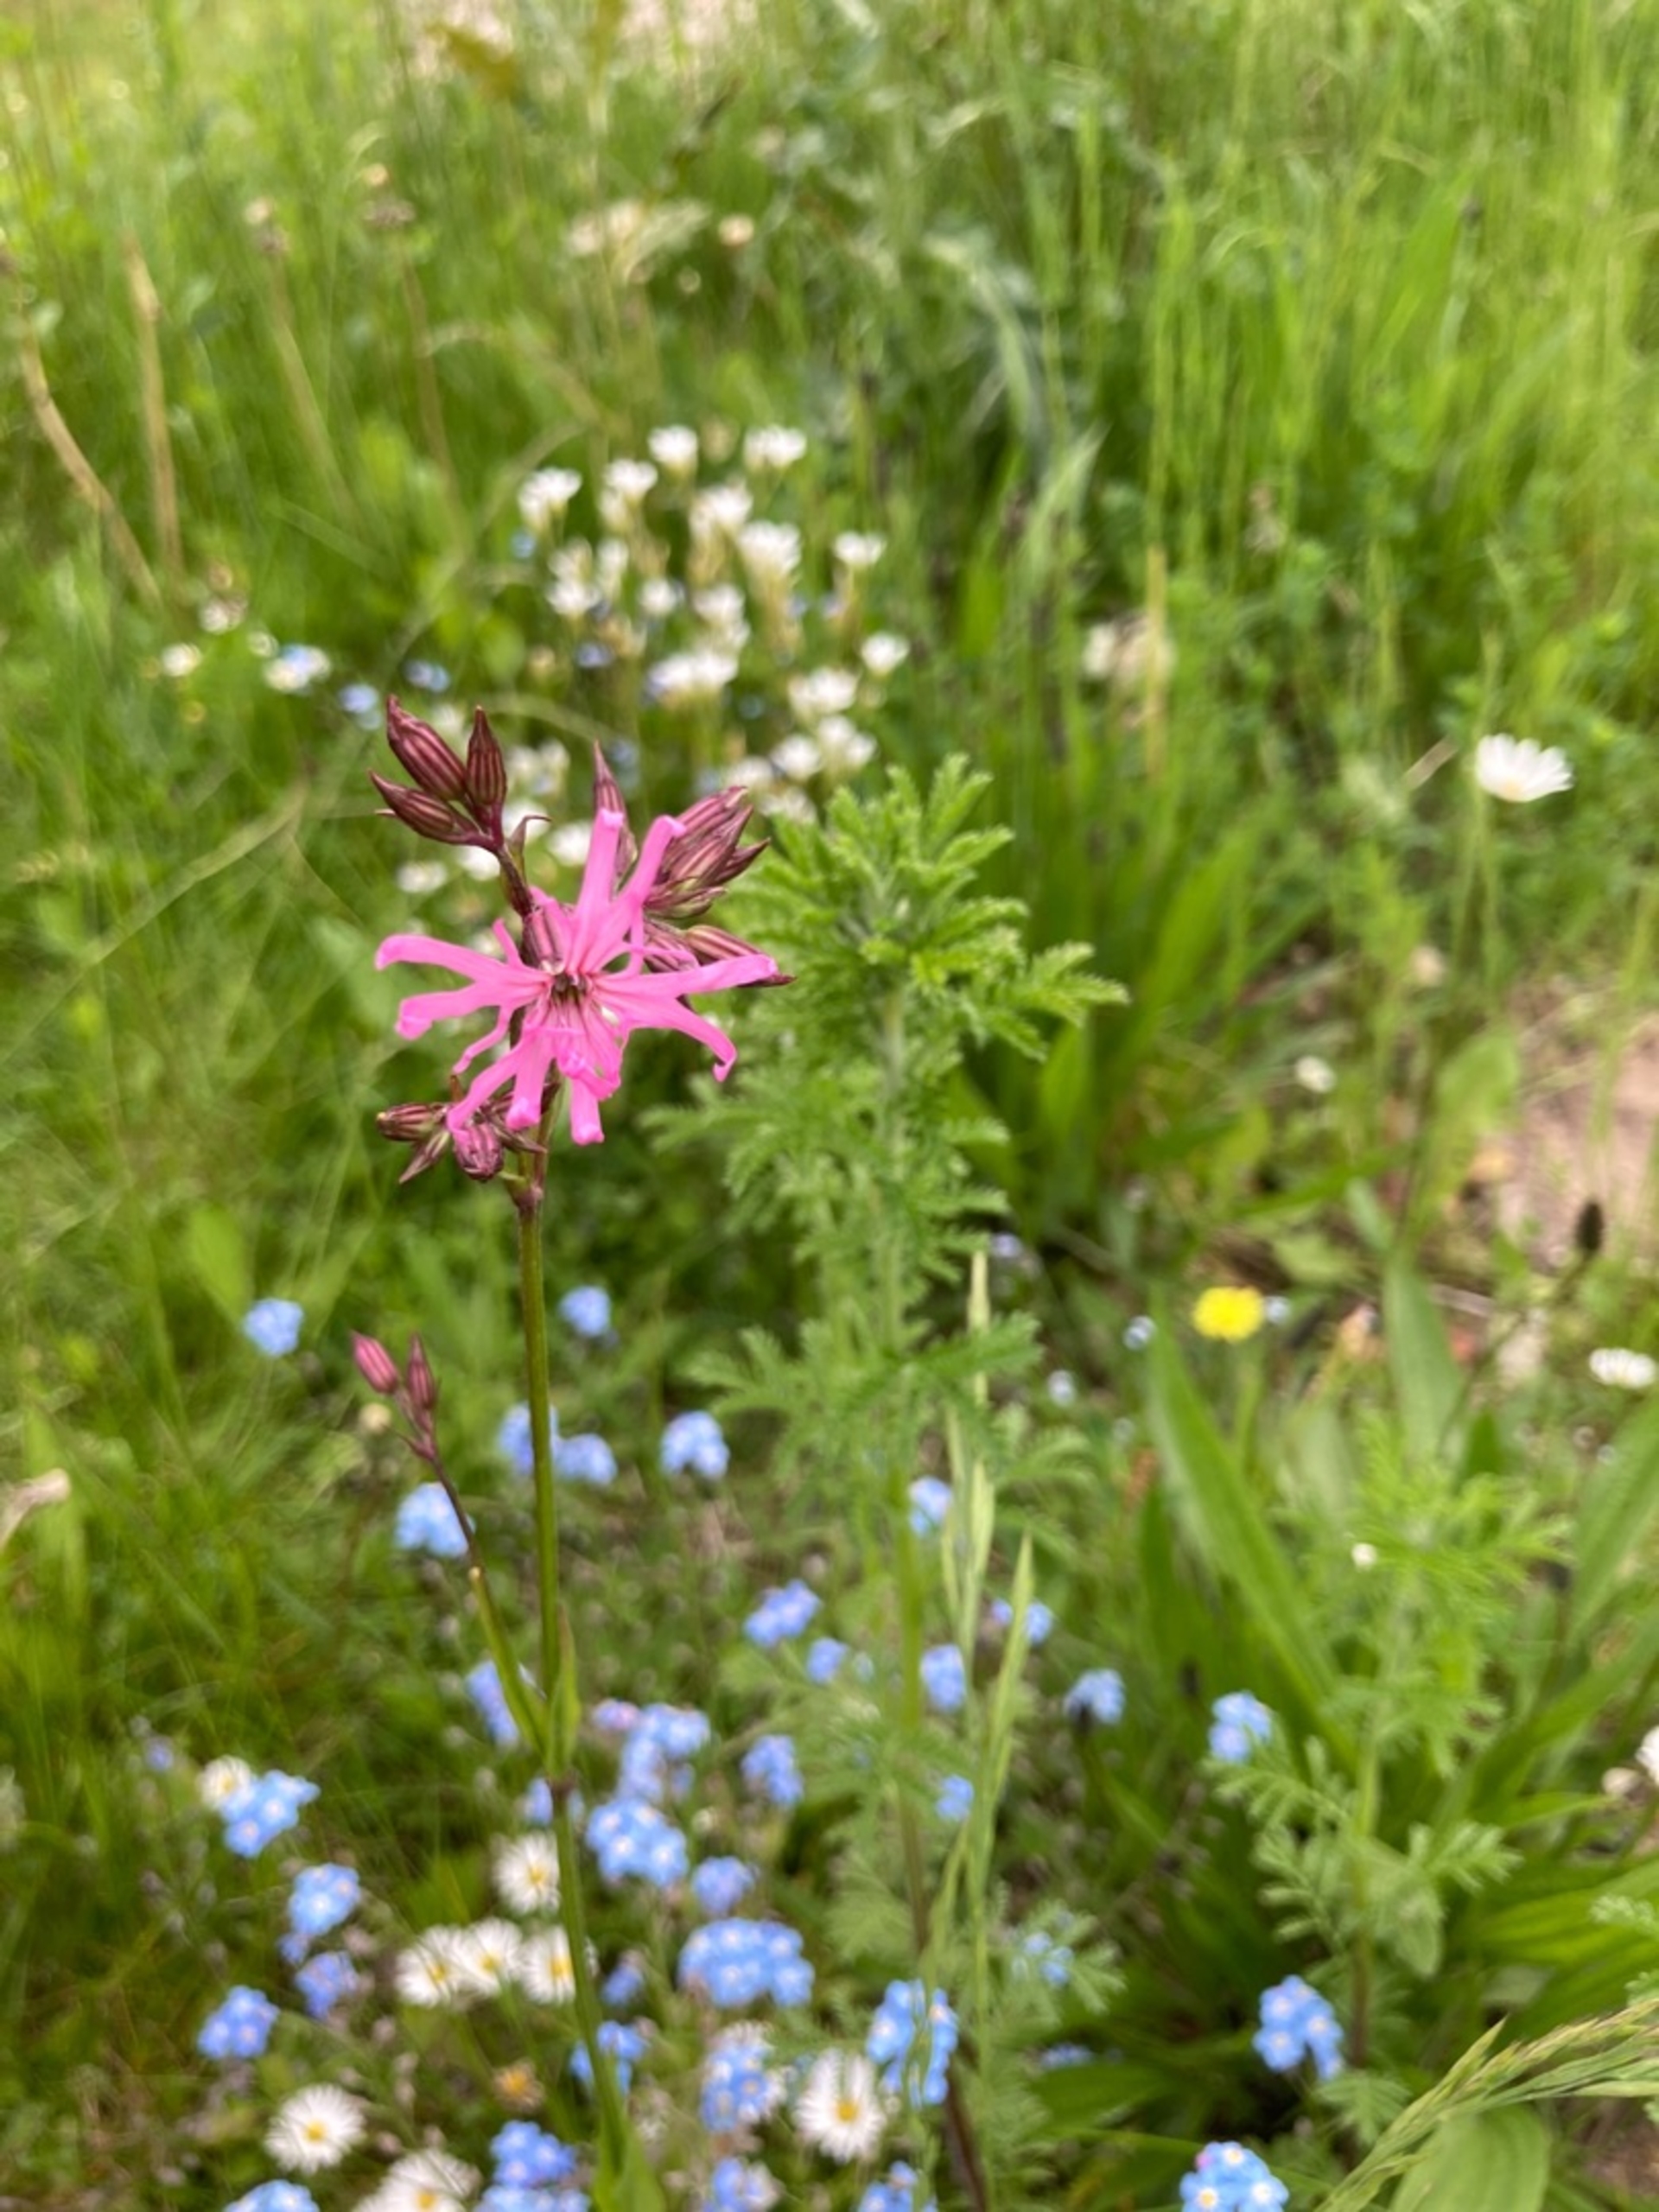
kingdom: Plantae
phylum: Tracheophyta
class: Magnoliopsida
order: Caryophyllales
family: Caryophyllaceae
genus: Silene
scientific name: Silene flos-cuculi
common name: Trævlekrone
